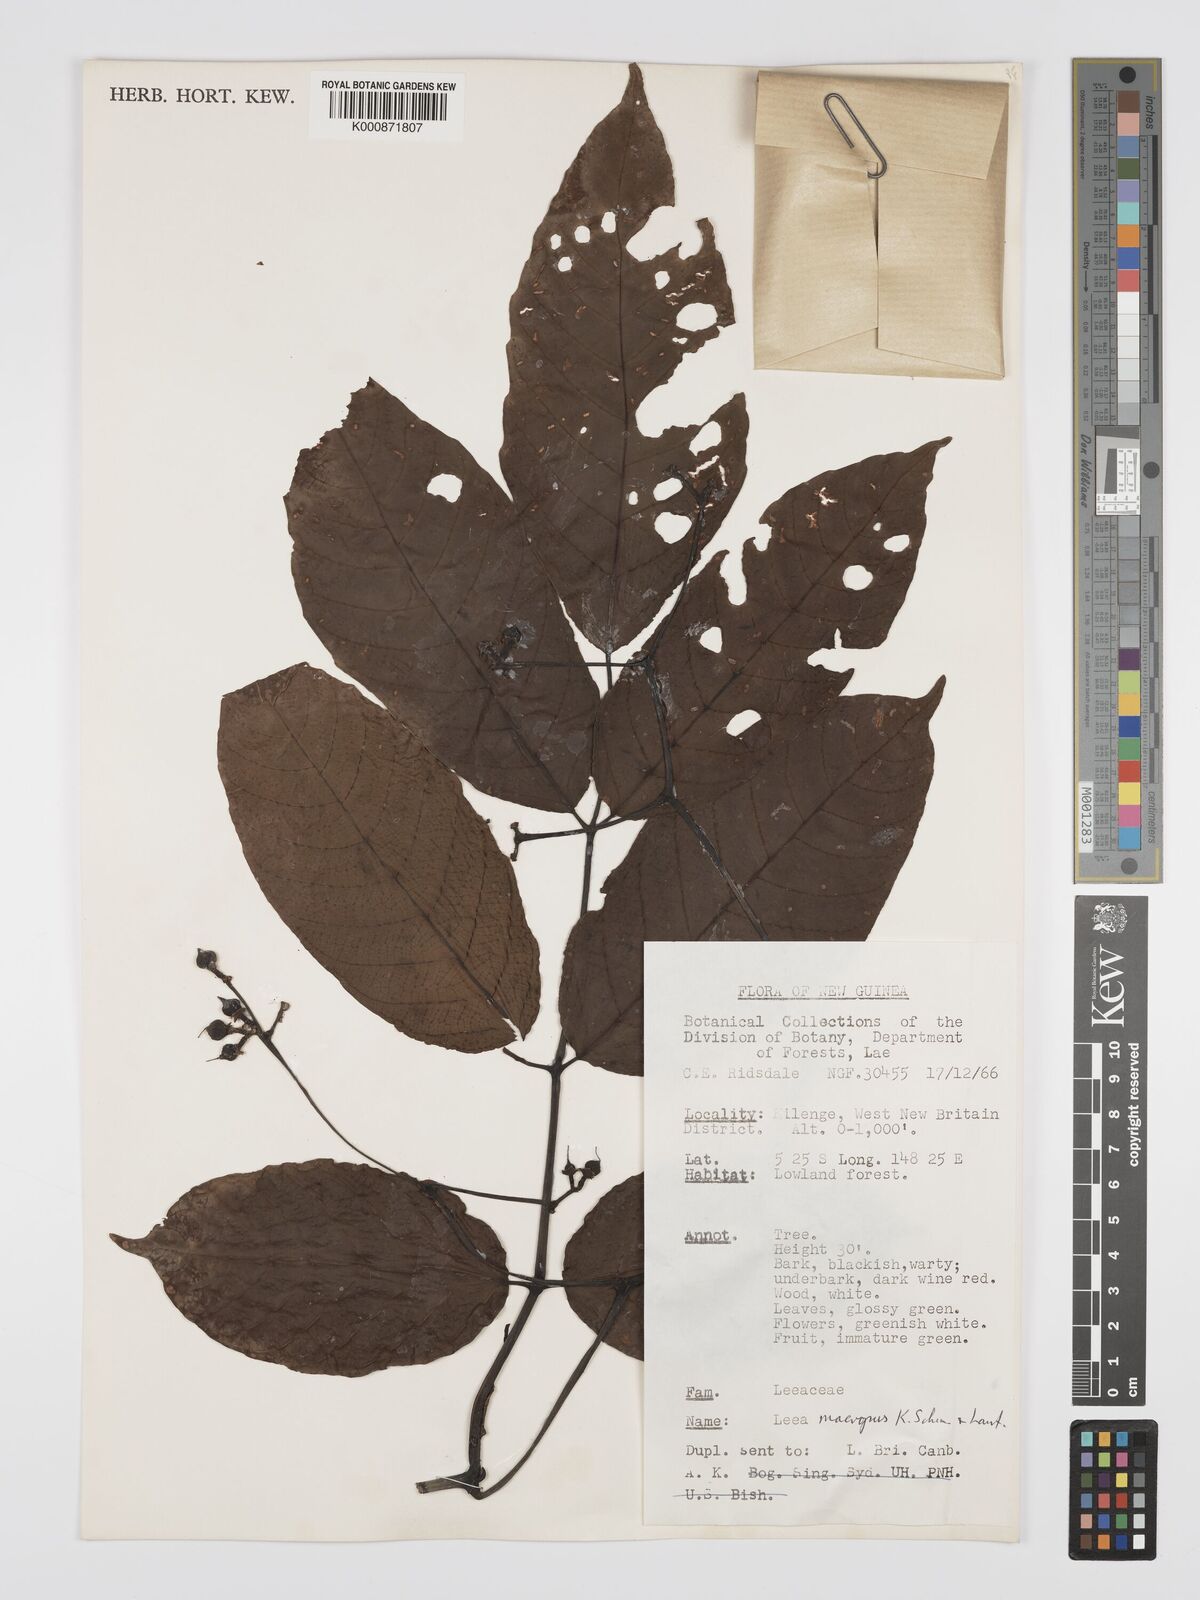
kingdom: Plantae
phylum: Tracheophyta
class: Magnoliopsida
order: Vitales
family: Vitaceae
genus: Leea
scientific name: Leea macropus
